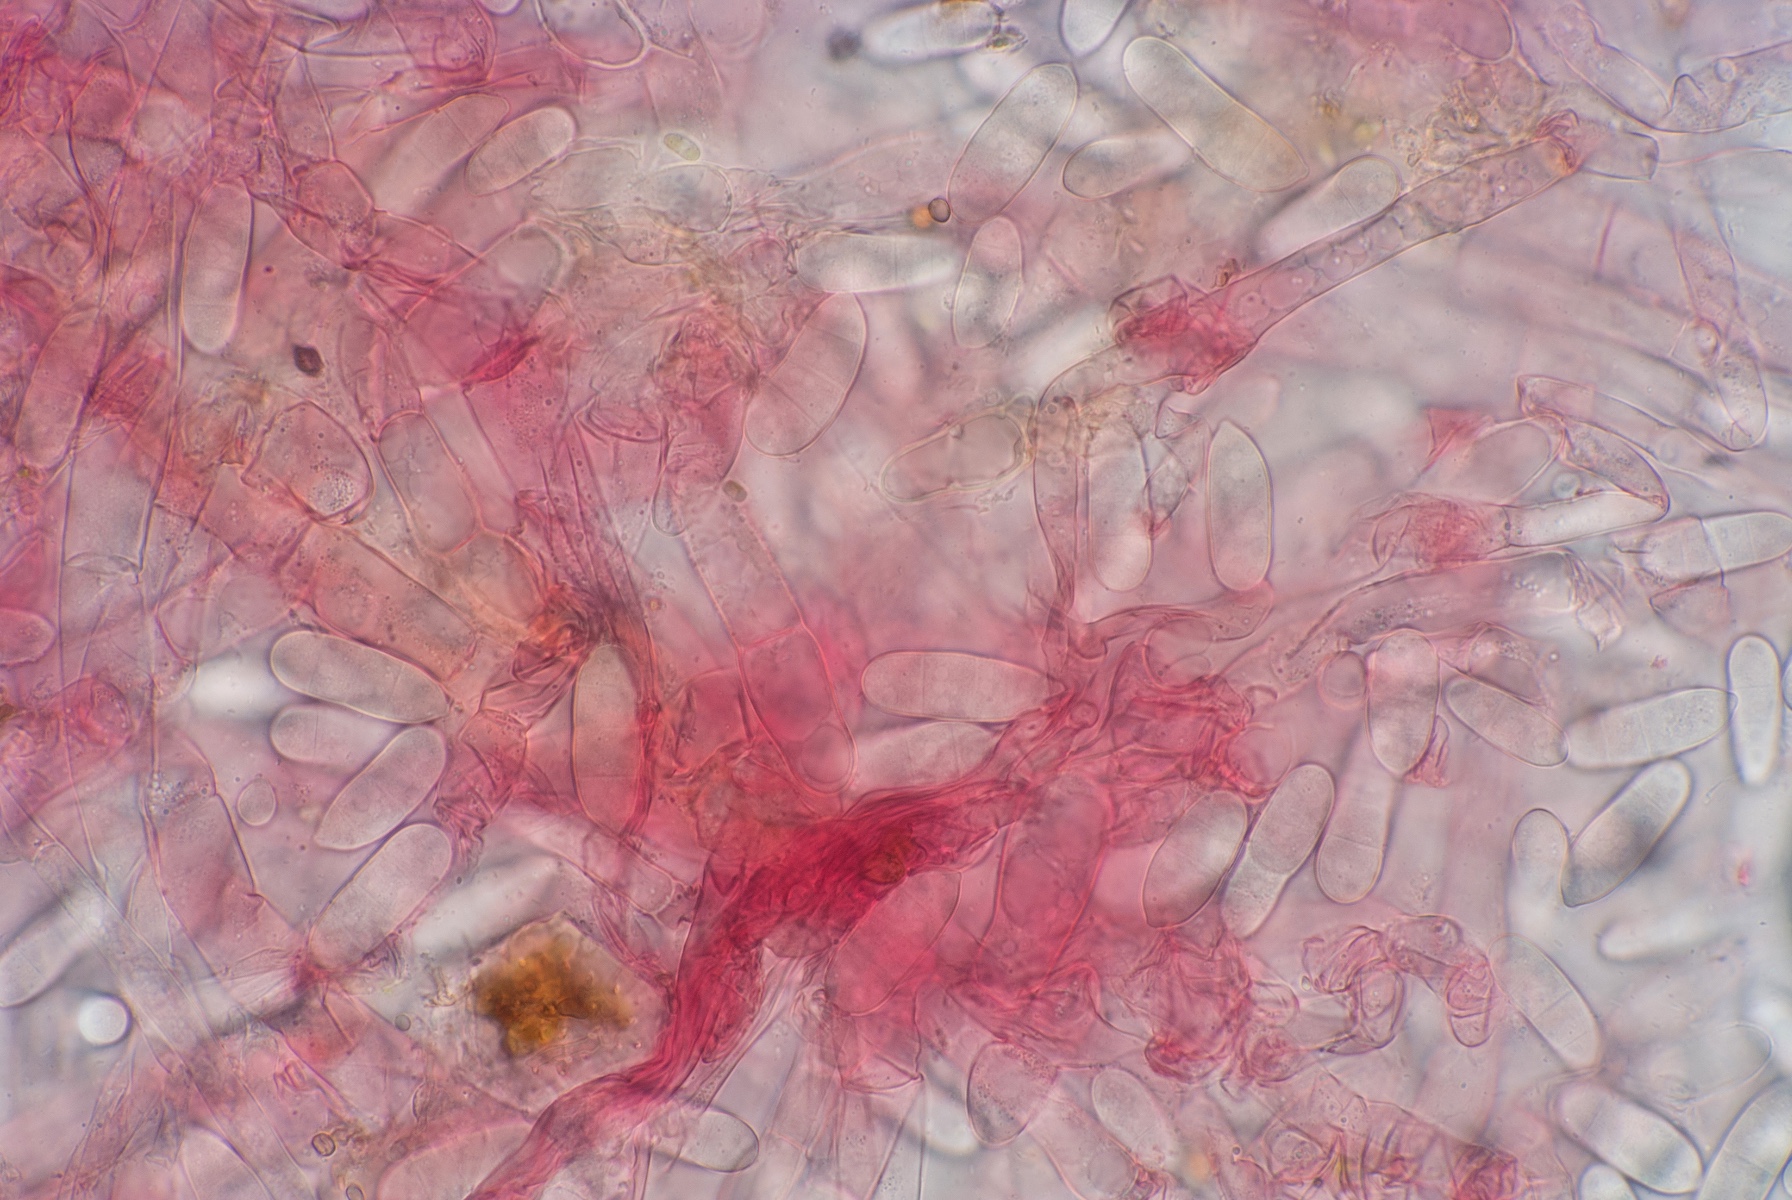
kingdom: Fungi
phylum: Ascomycota
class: Sordariomycetes
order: Hypocreales
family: Hypocreaceae
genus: Hypomyces
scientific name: Hypomyces rosellus
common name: rosa snylteskorpe
